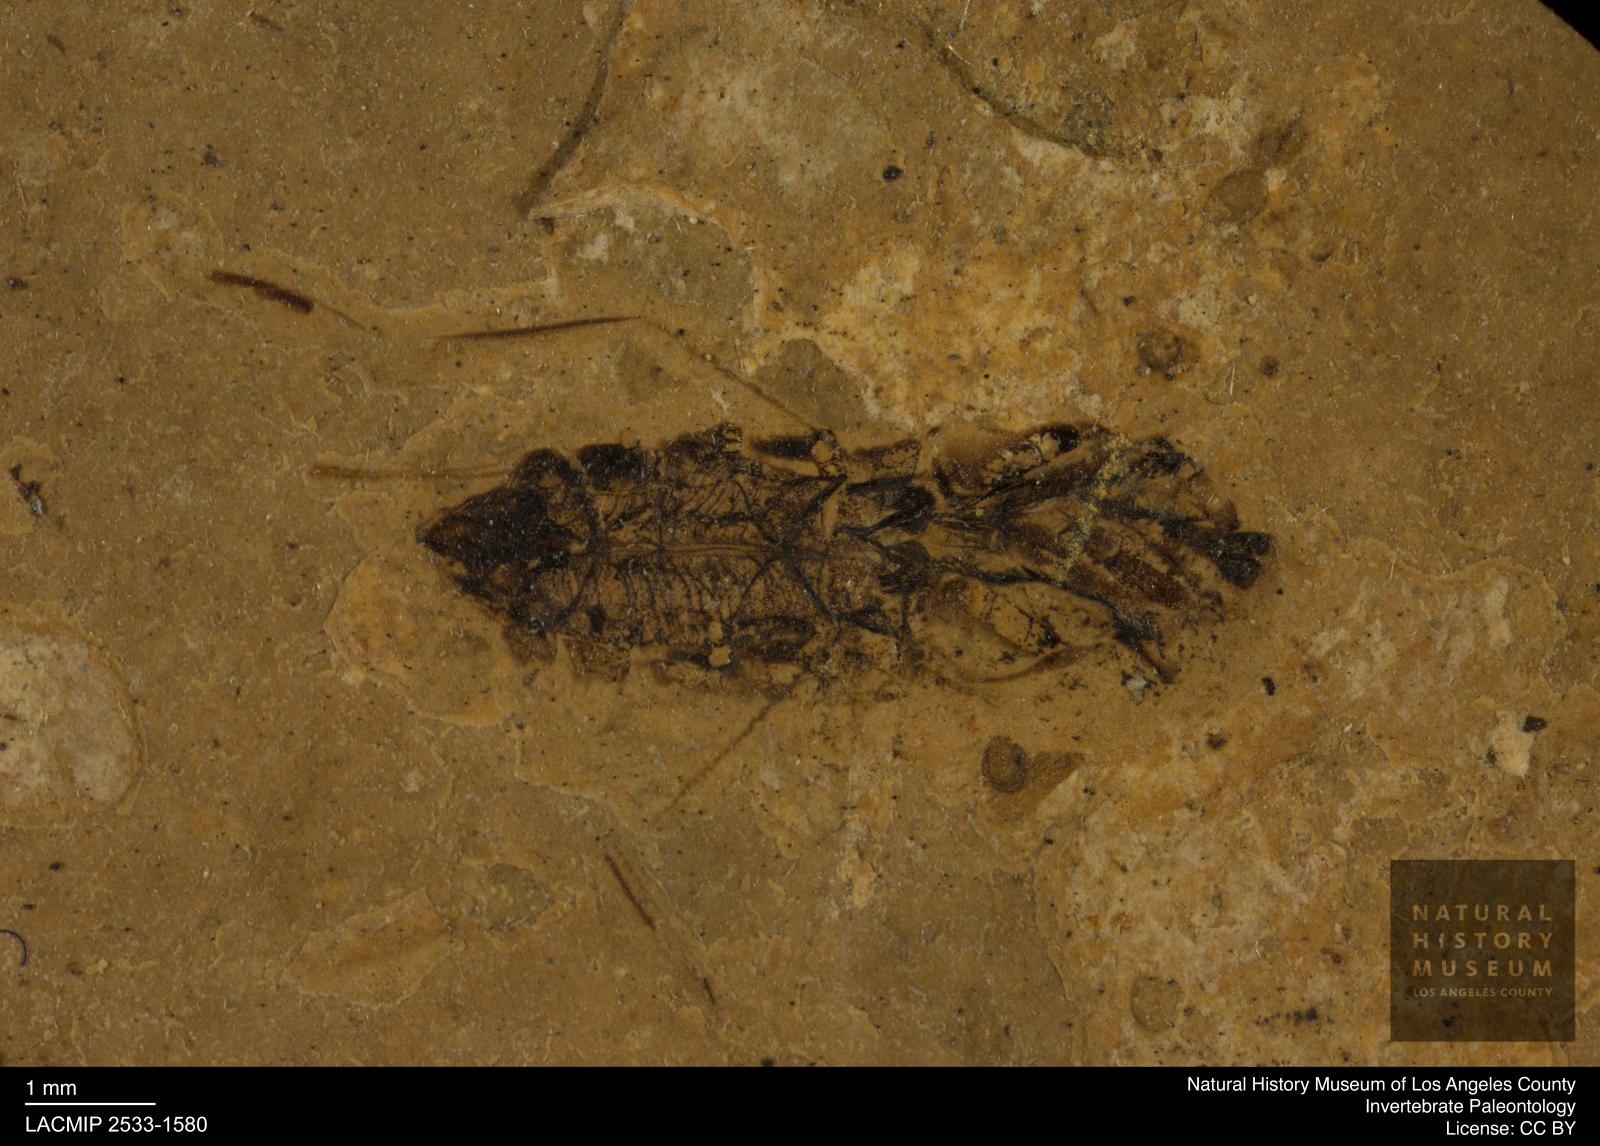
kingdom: Animalia
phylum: Arthropoda
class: Insecta
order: Hemiptera
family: Notonectidae
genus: Notonecta
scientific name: Notonecta
